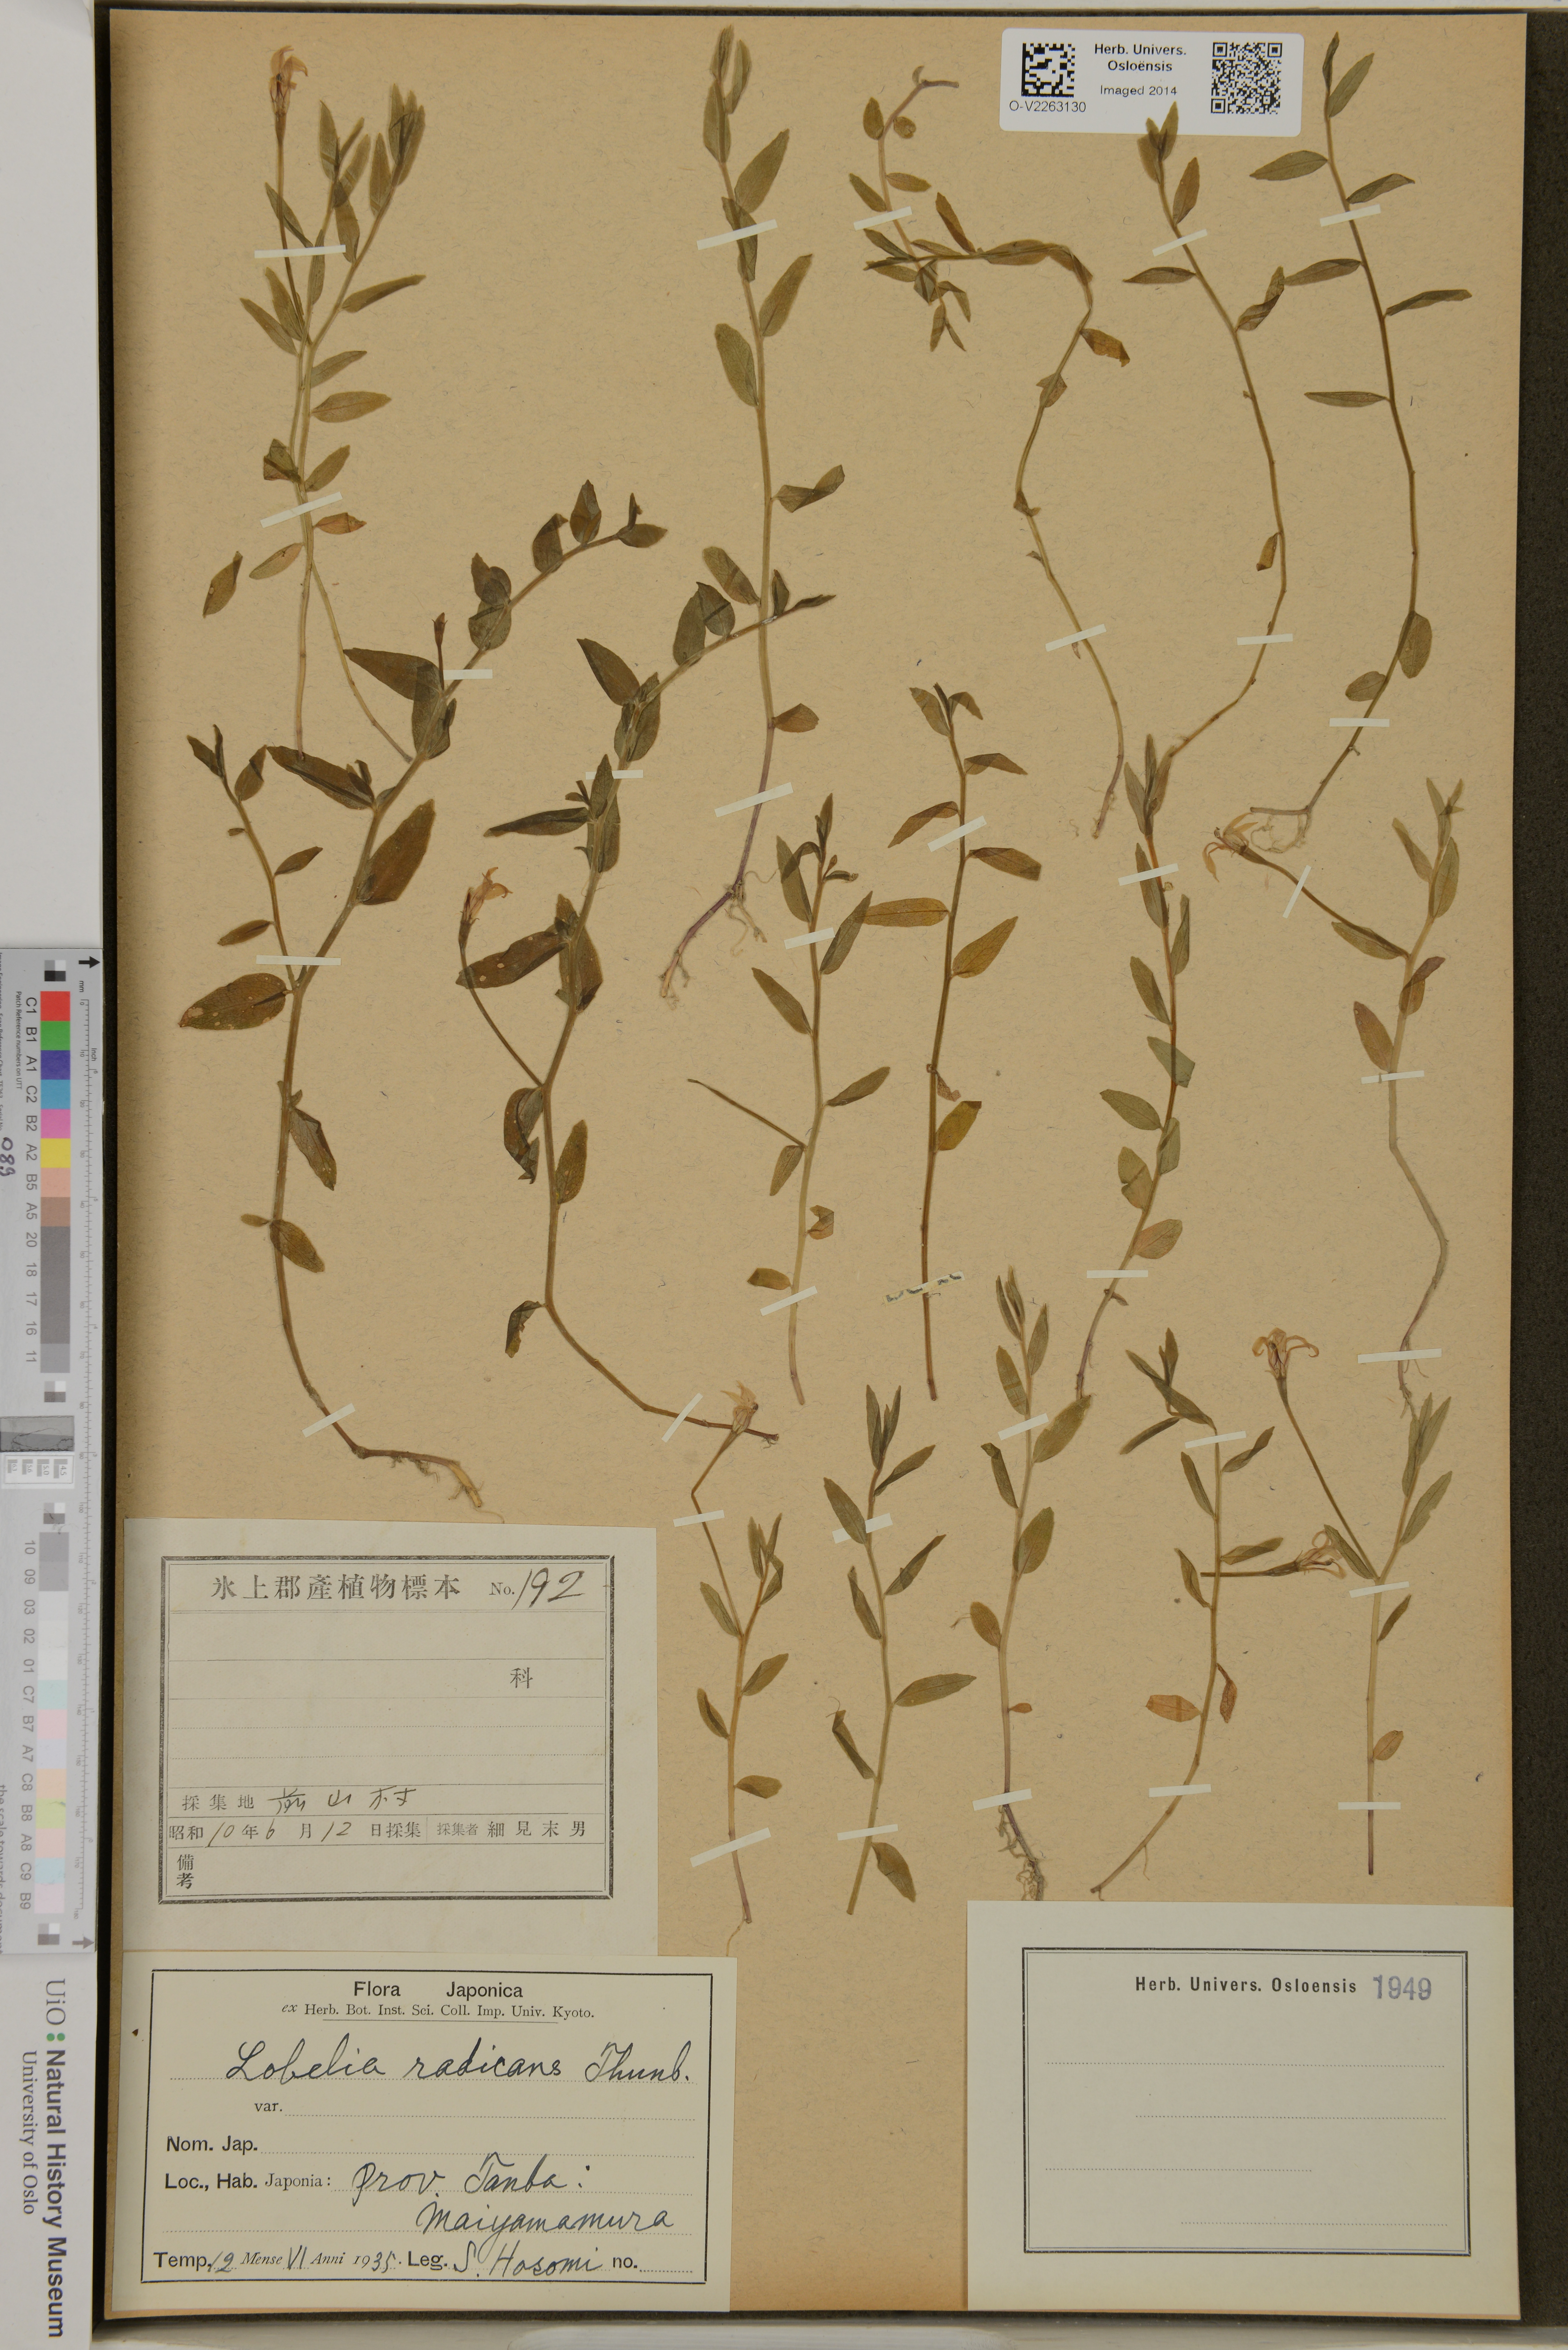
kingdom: Plantae
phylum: Tracheophyta
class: Magnoliopsida
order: Asterales
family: Campanulaceae
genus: Lobelia
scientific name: Lobelia chinensis
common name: Chinese lobelia
